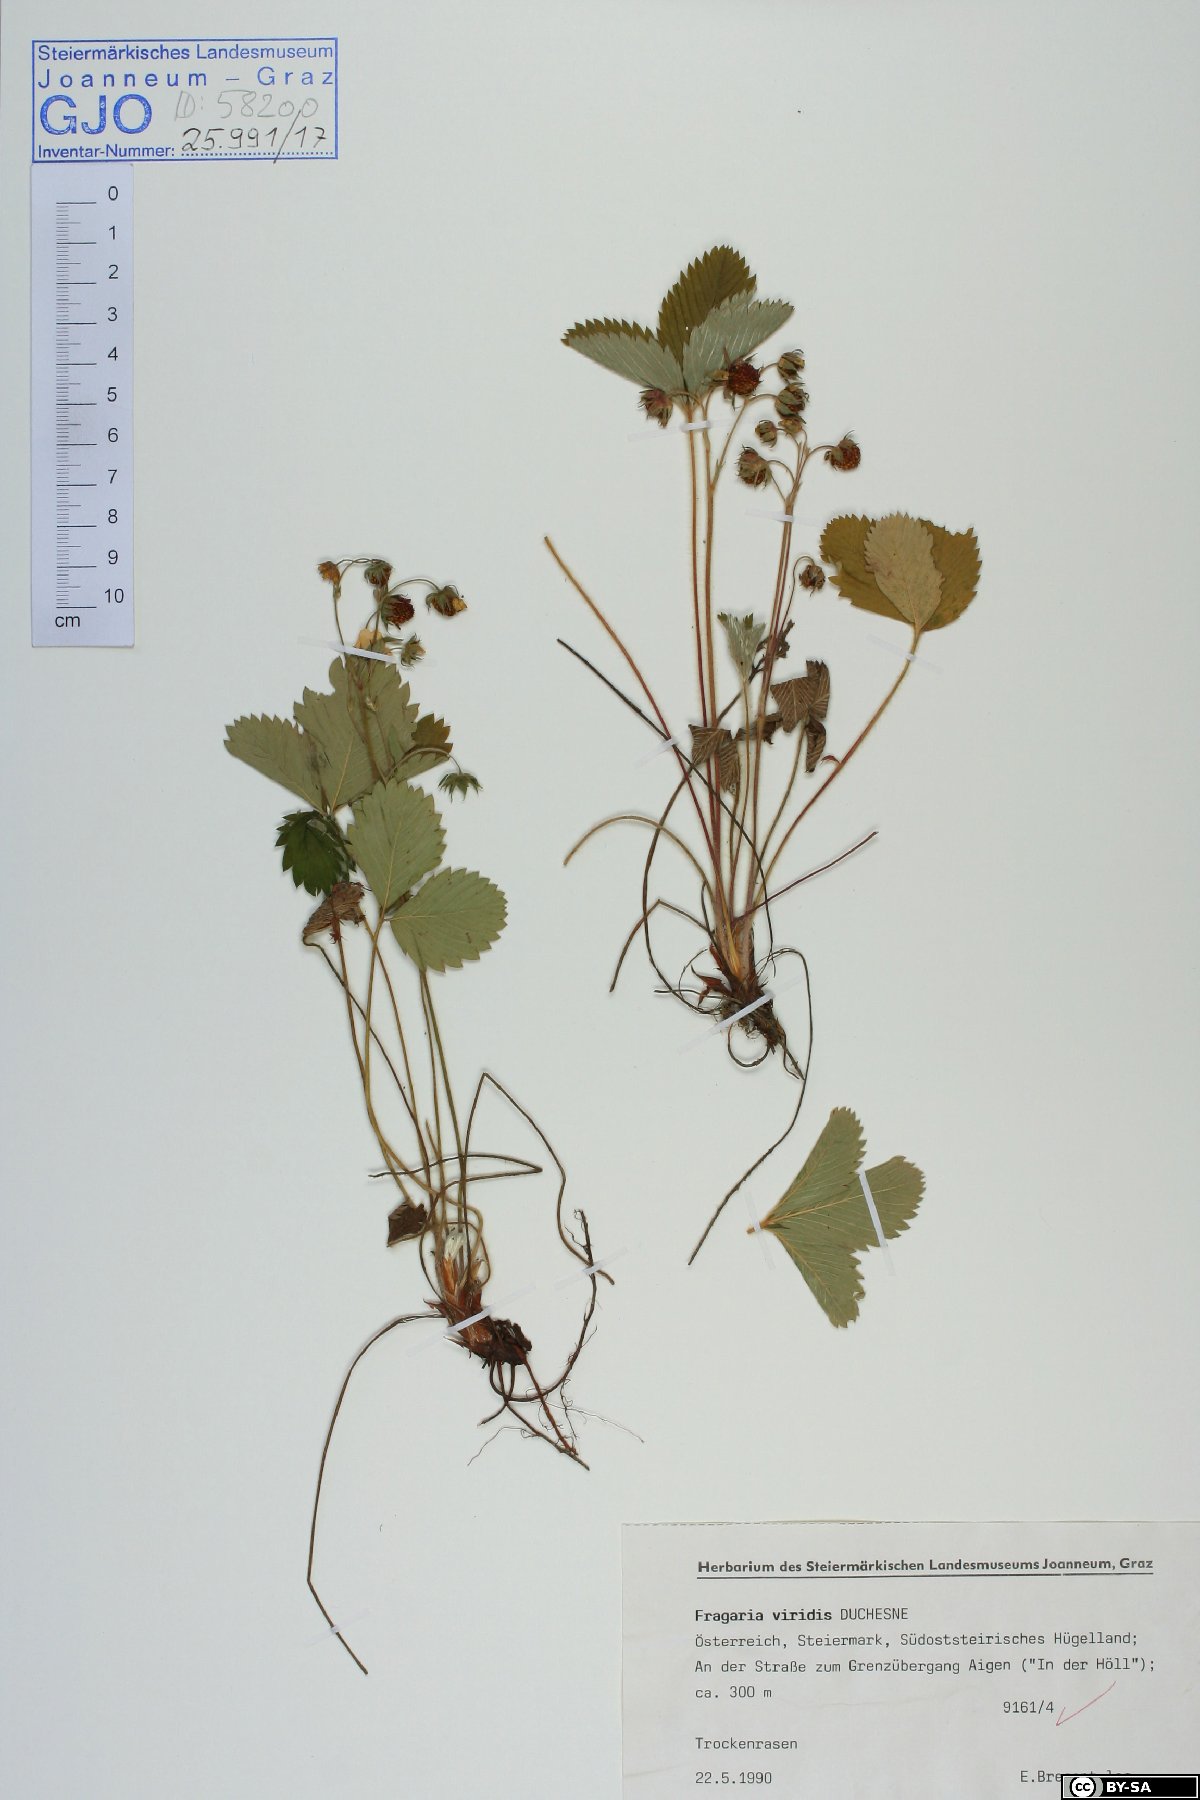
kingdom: Plantae
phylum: Tracheophyta
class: Magnoliopsida
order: Rosales
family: Rosaceae
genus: Fragaria
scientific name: Fragaria viridis
